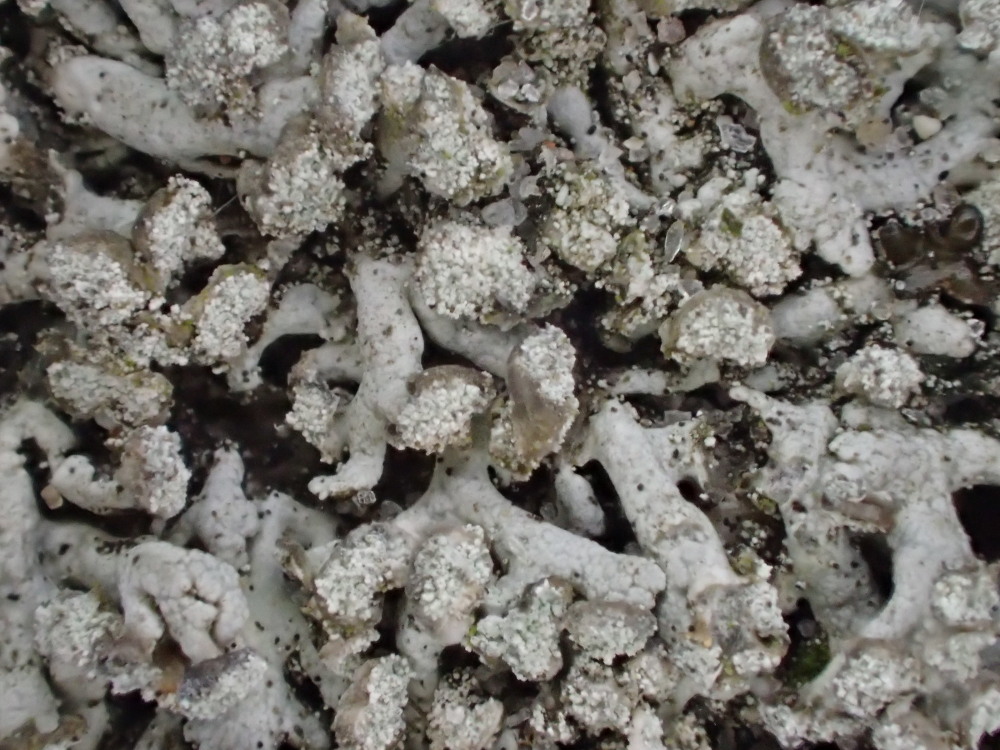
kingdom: Fungi
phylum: Ascomycota
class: Lecanoromycetes
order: Caliciales
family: Physciaceae
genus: Physcia
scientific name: Physcia dubia
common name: fuglestens-rosetlav
